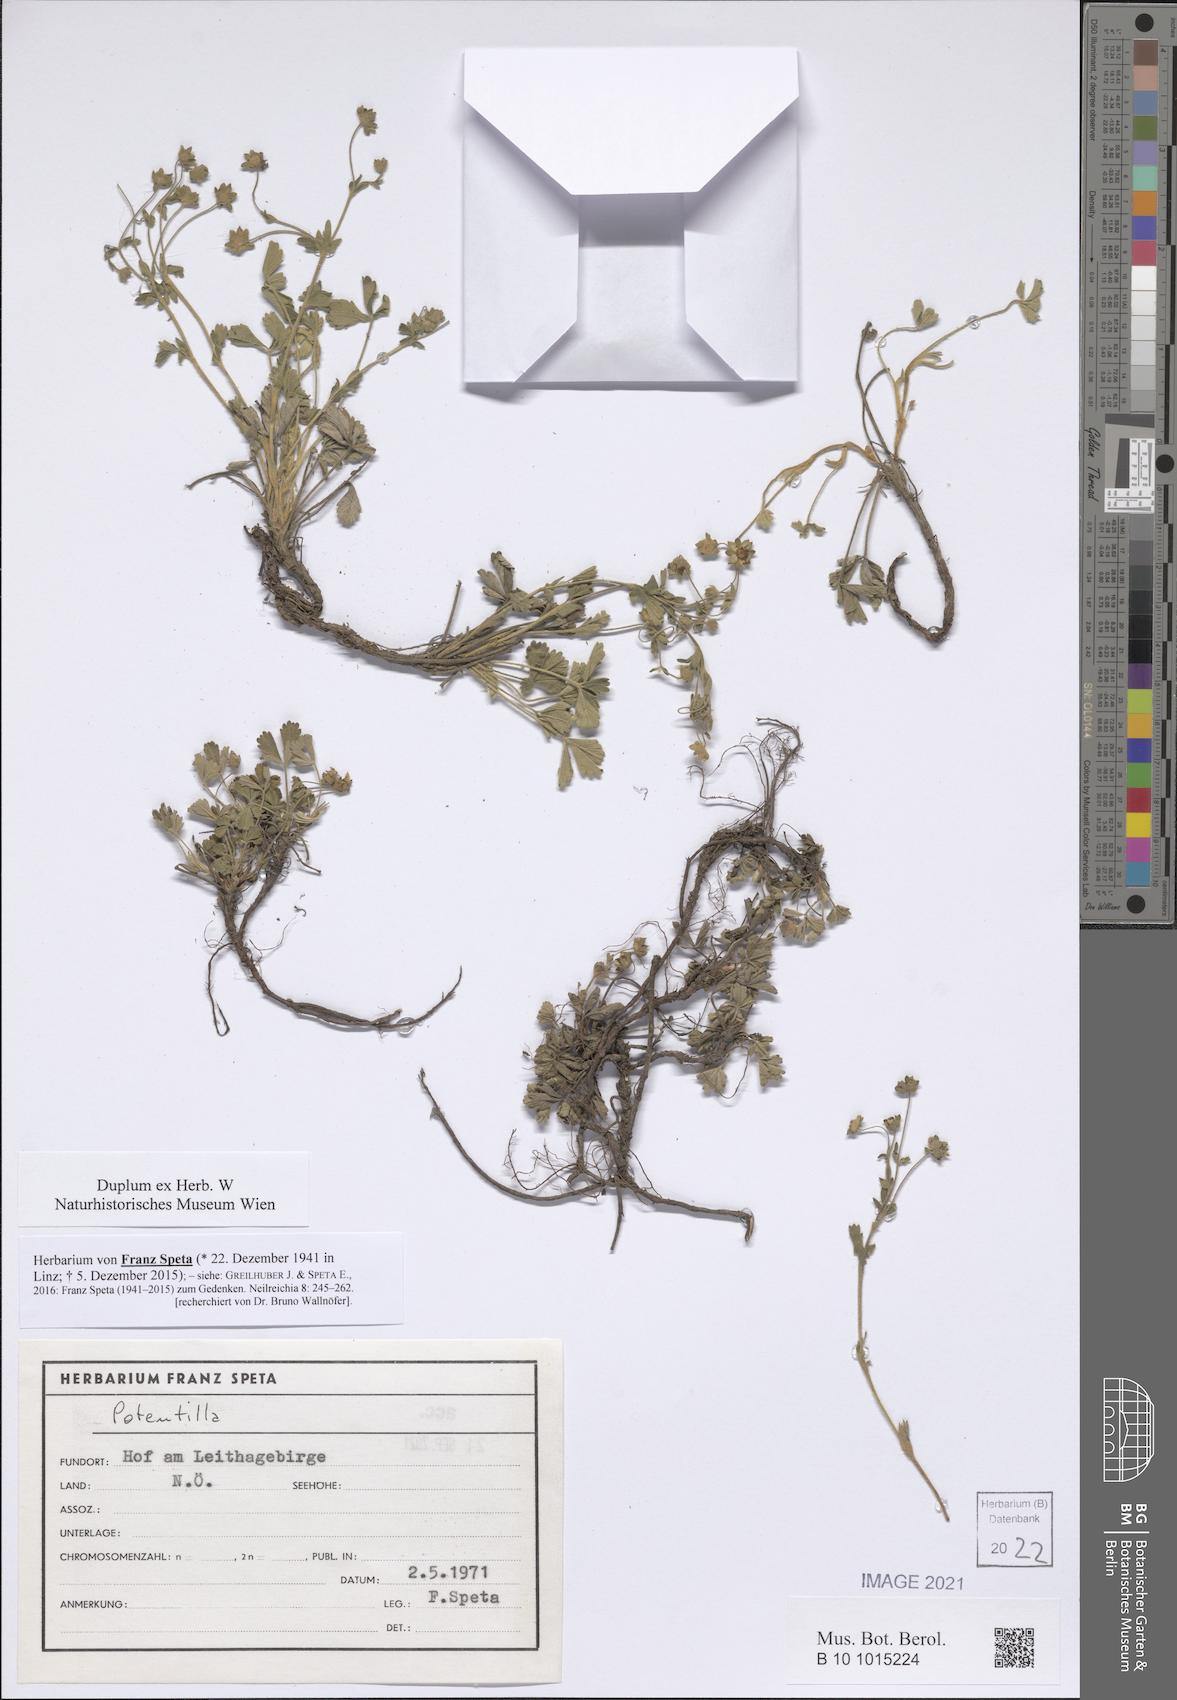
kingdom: Plantae
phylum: Tracheophyta
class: Magnoliopsida
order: Rosales
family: Rosaceae
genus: Potentilla
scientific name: Potentilla
